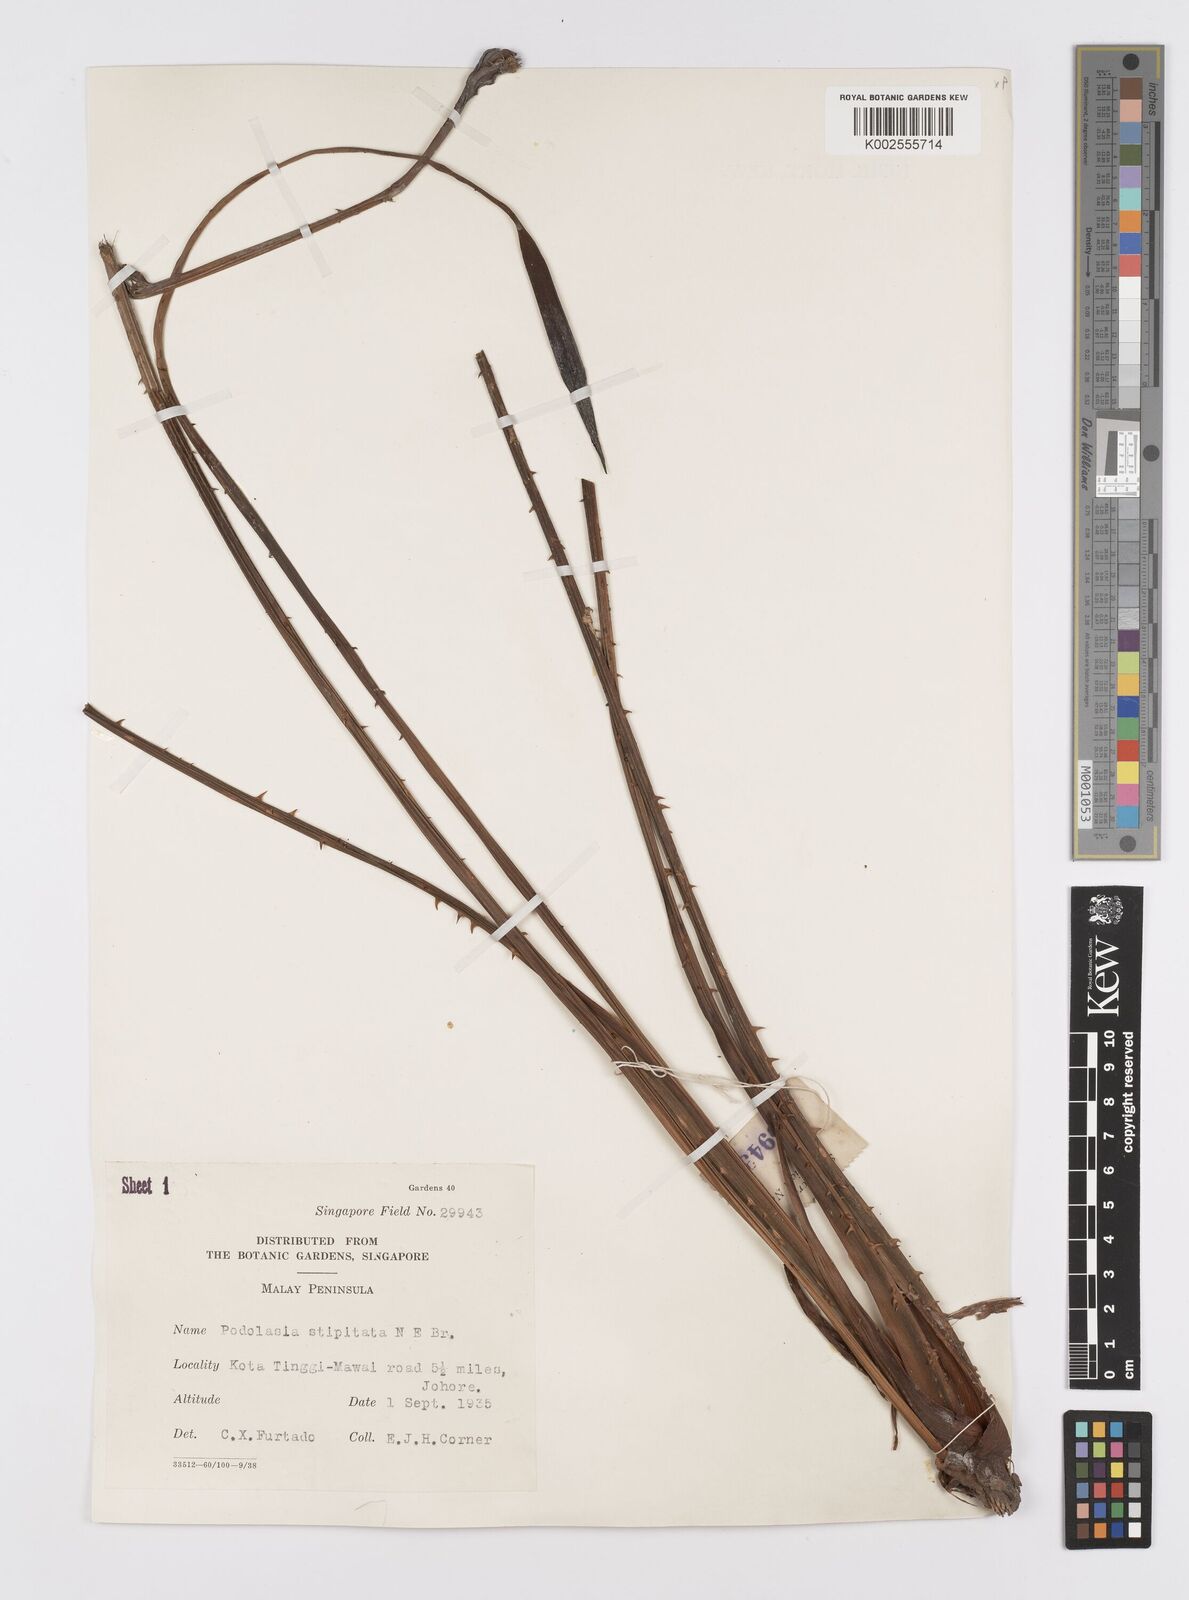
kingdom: Plantae
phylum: Tracheophyta
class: Liliopsida
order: Alismatales
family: Araceae
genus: Podolasia
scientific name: Podolasia stipitata
